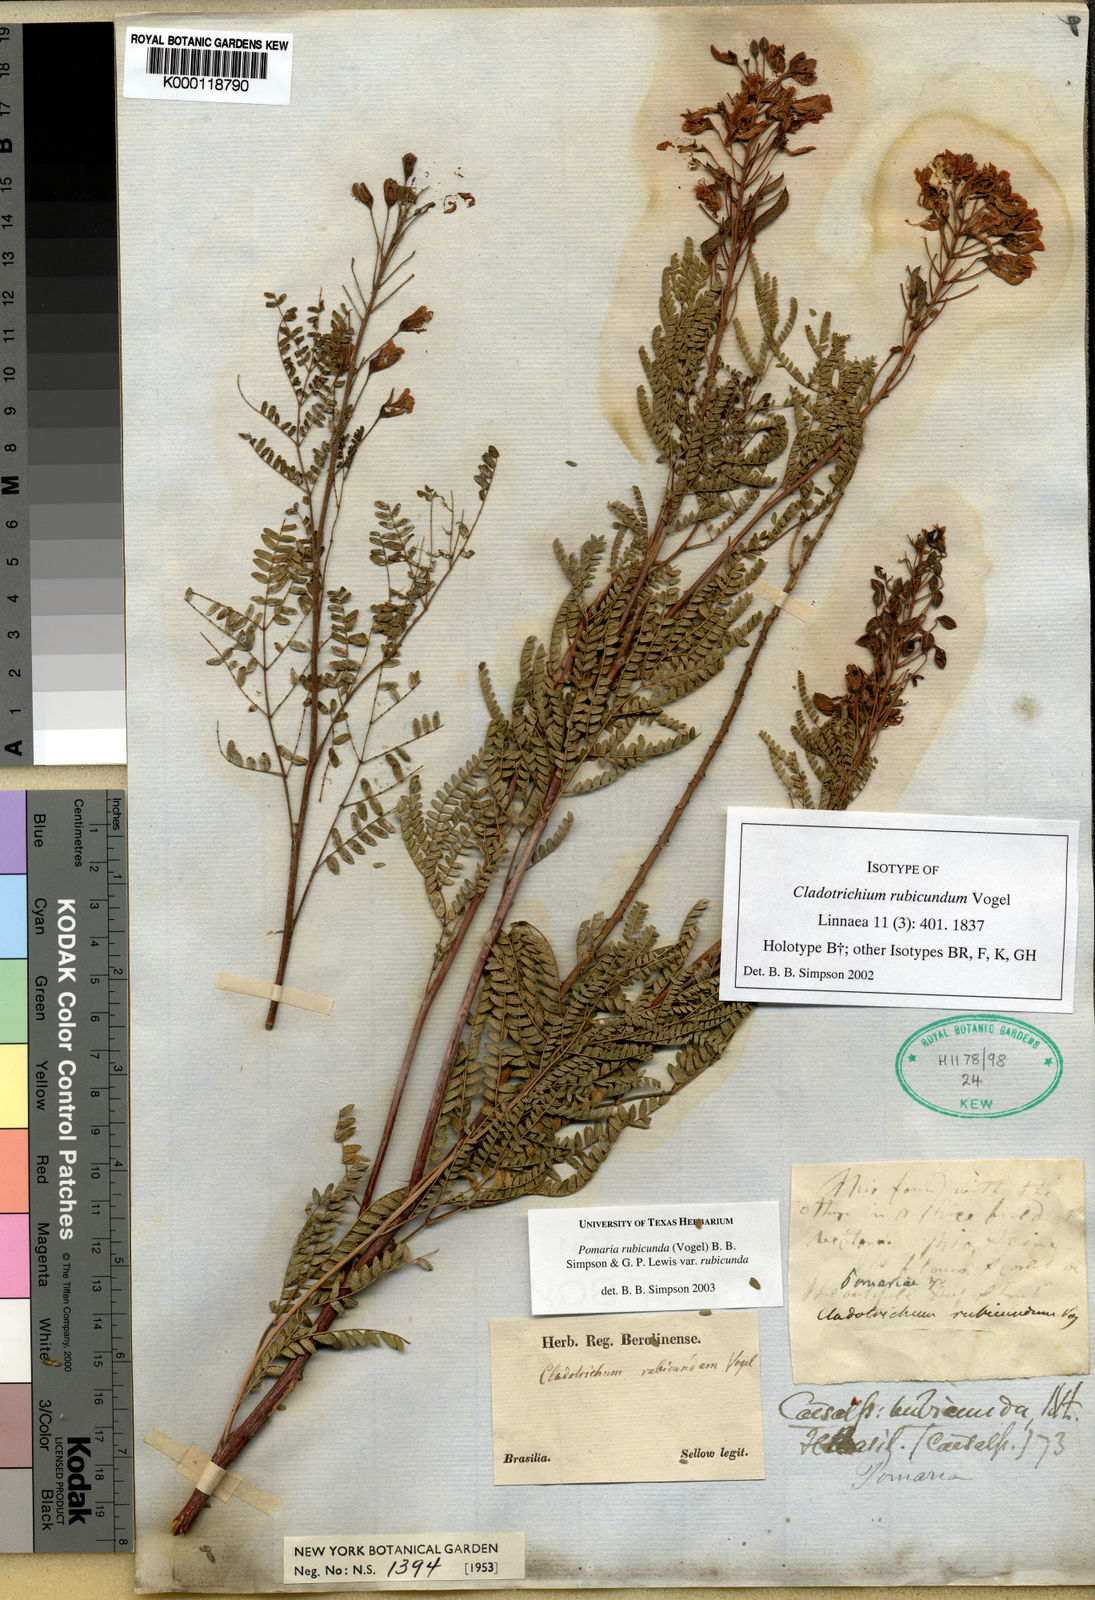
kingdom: Plantae
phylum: Tracheophyta
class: Magnoliopsida
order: Fabales
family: Fabaceae
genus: Pomaria
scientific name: Pomaria rubicunda
